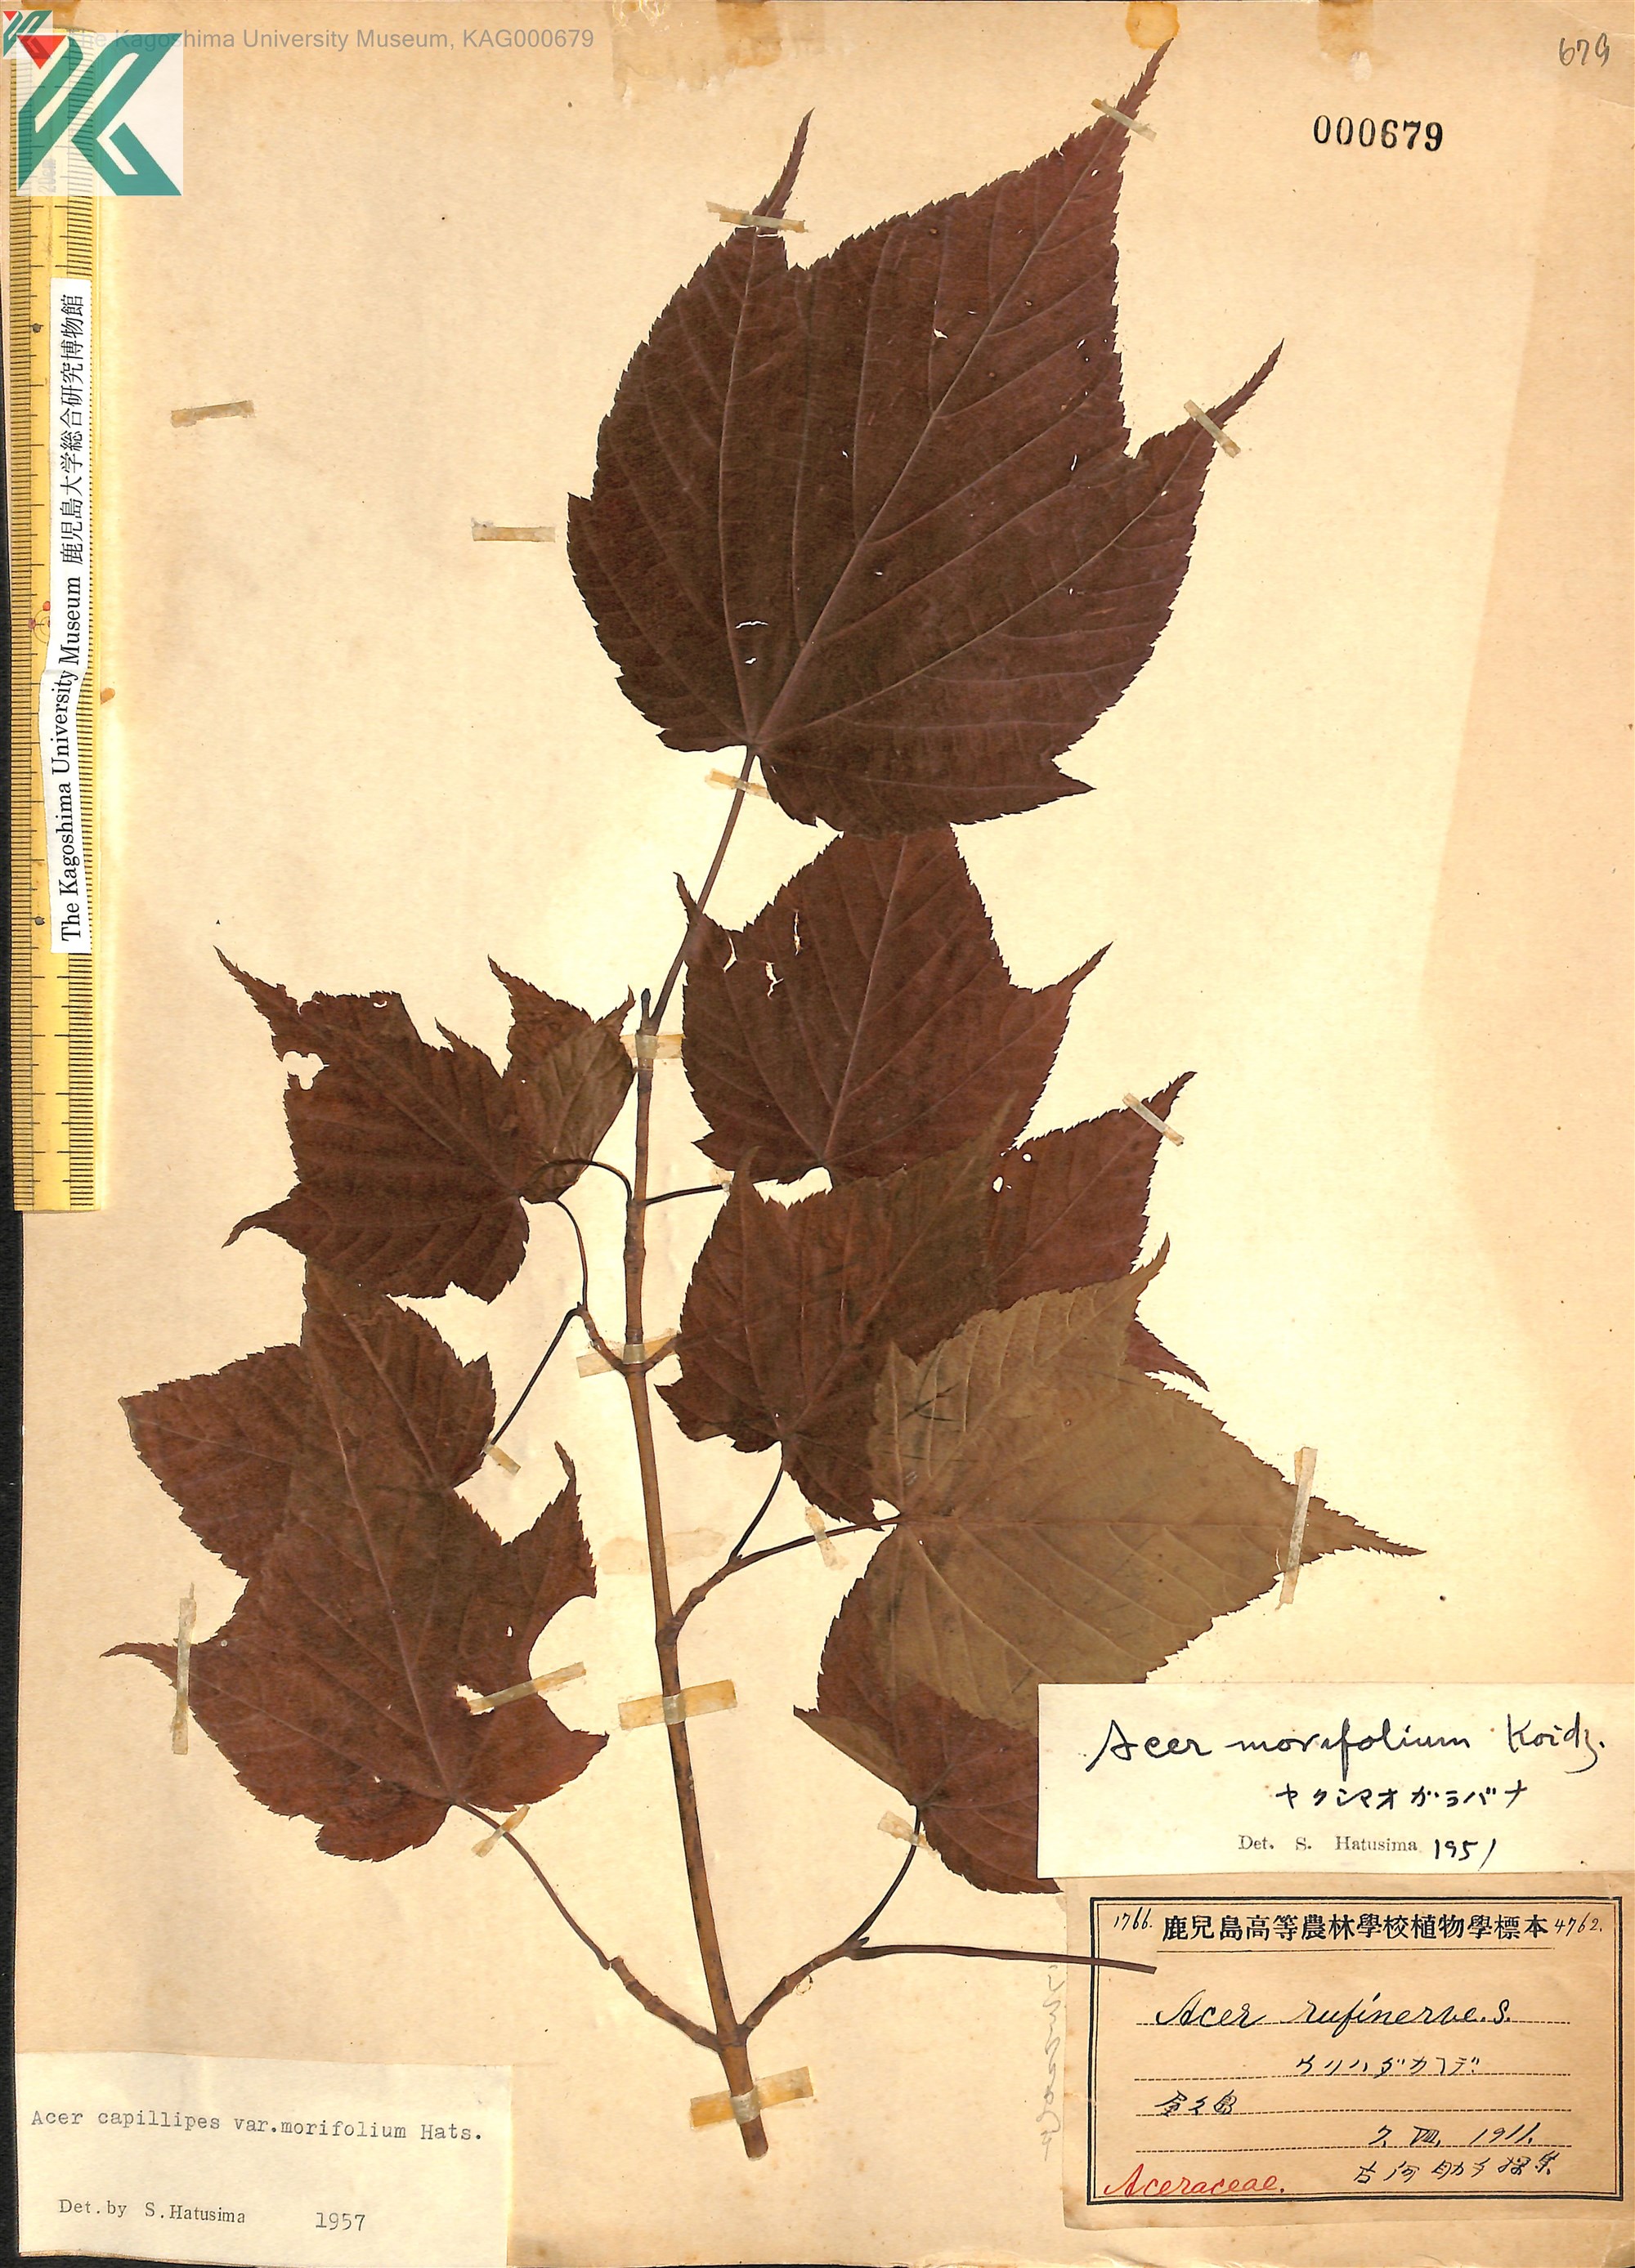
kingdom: Plantae
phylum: Tracheophyta
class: Magnoliopsida
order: Sapindales
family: Sapindaceae
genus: Acer
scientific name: Acer morifolium
